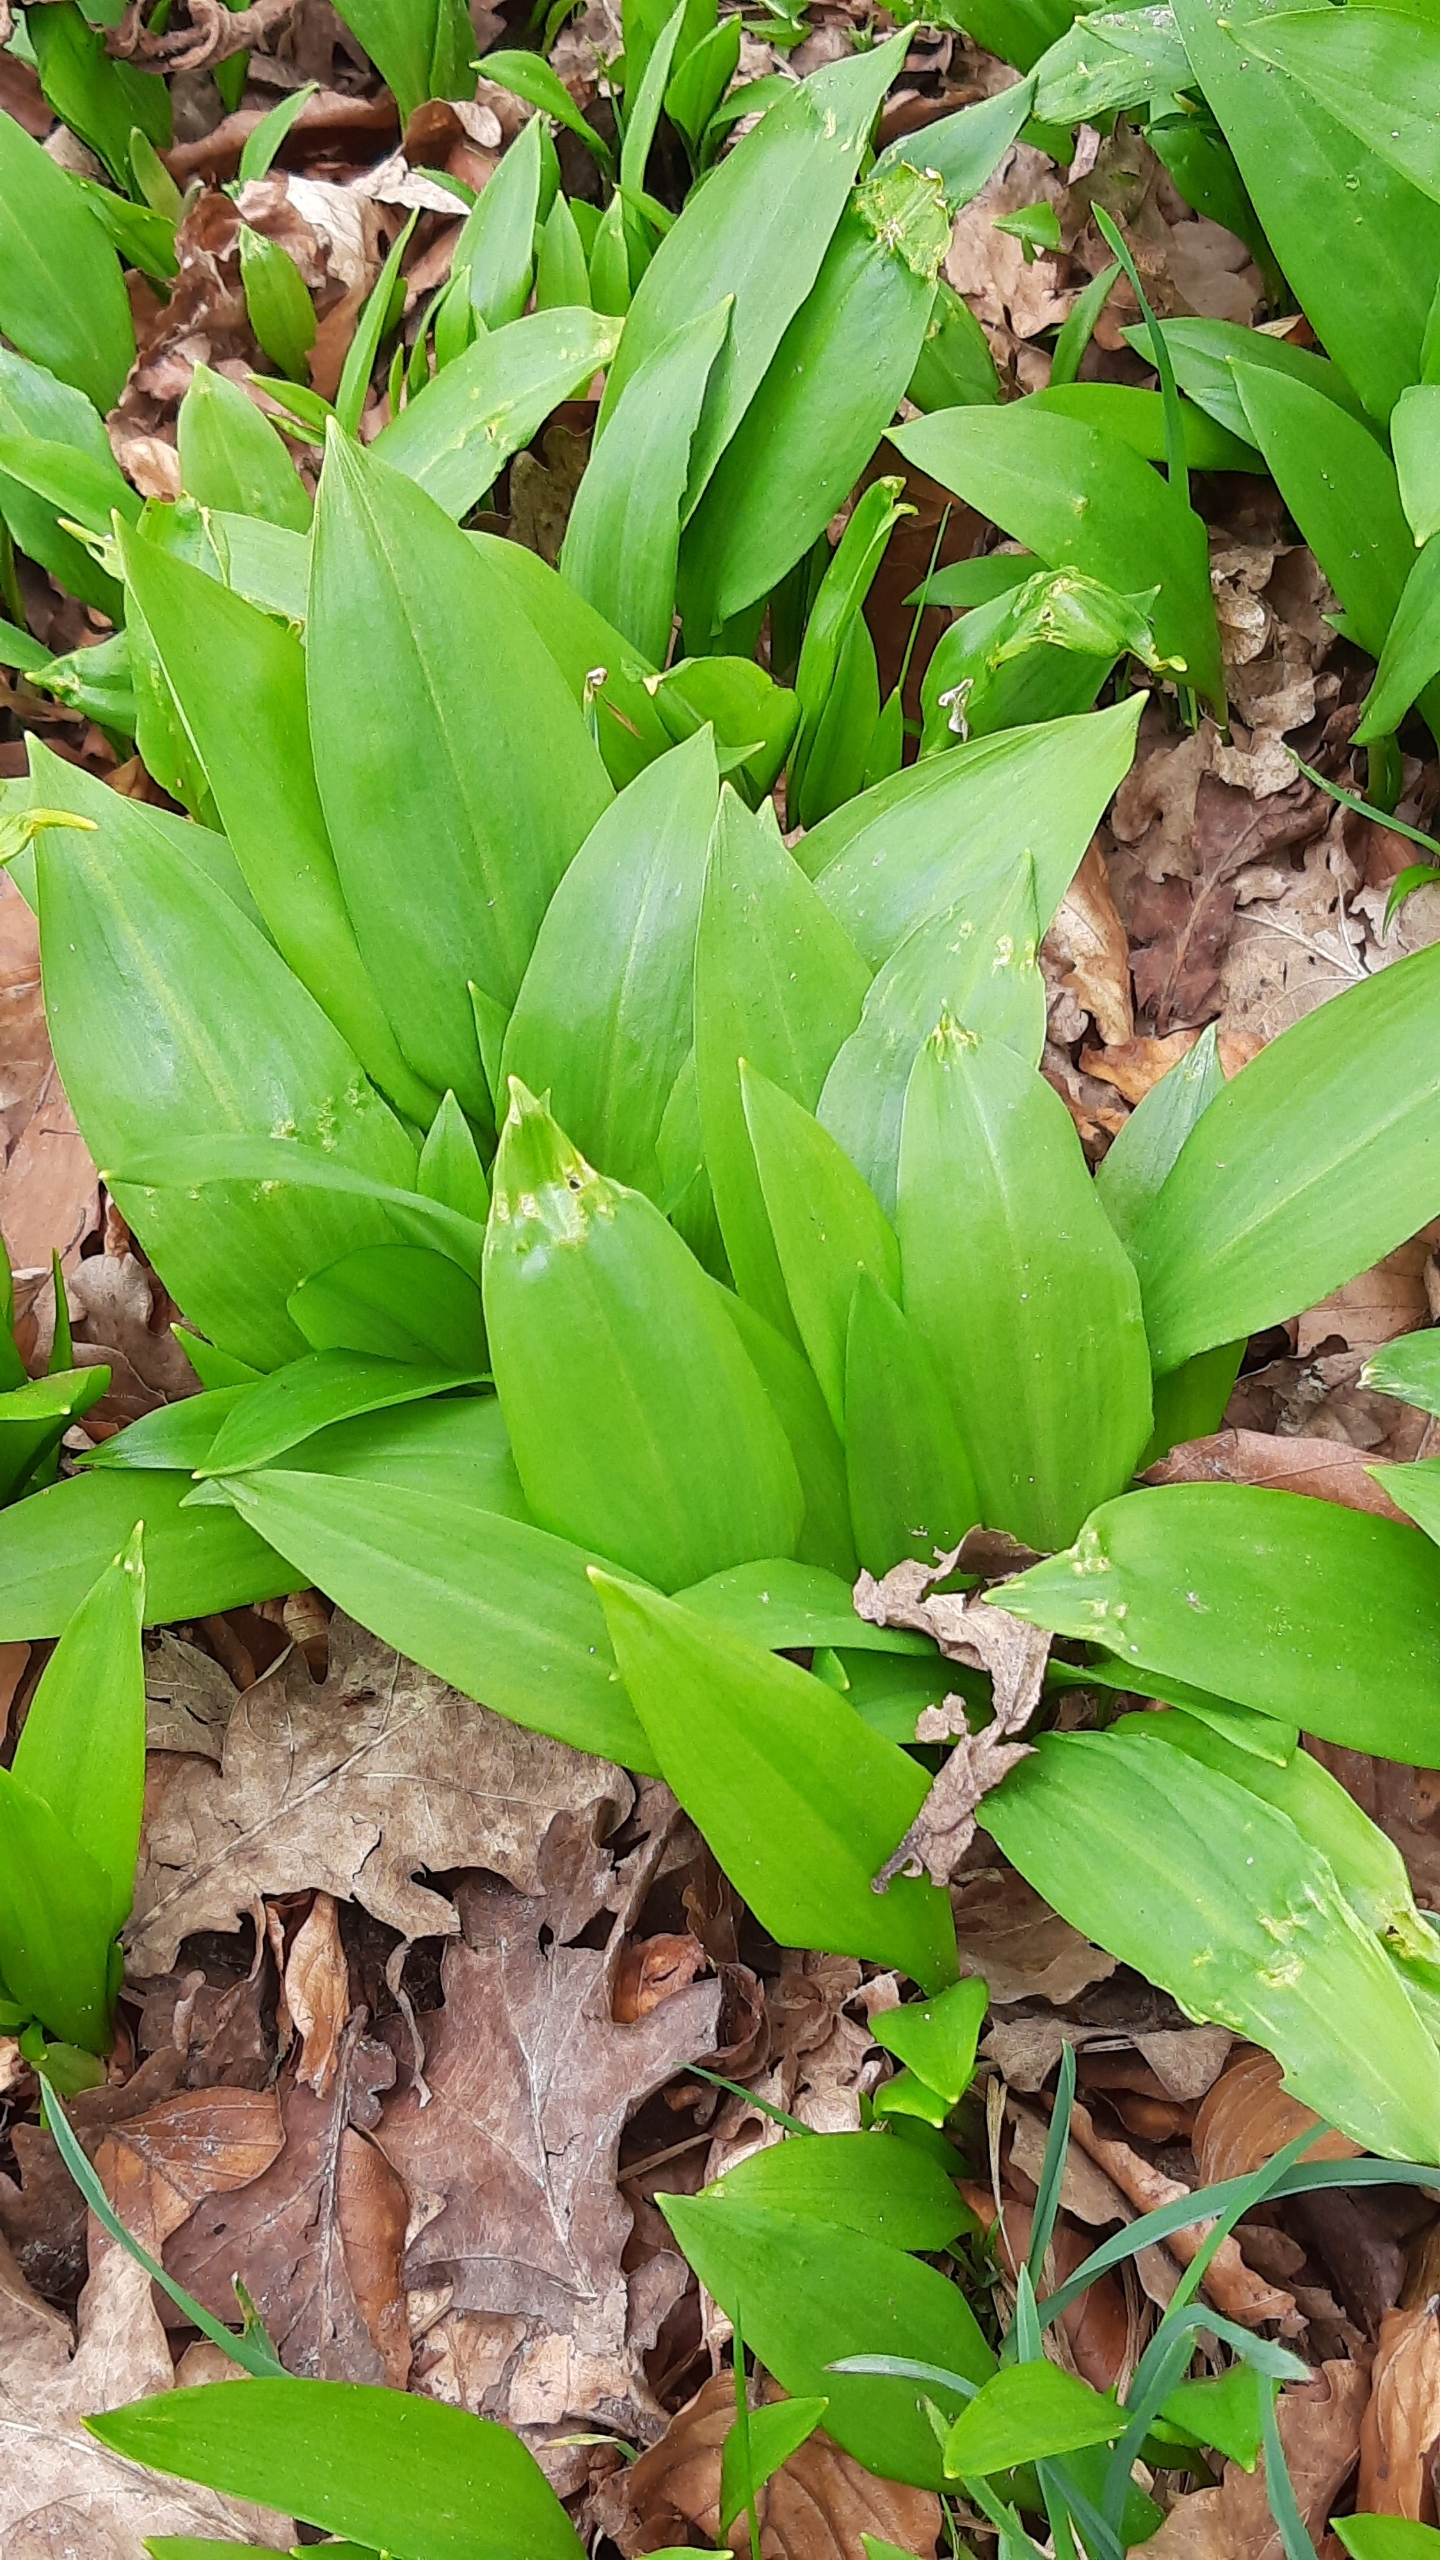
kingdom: Plantae
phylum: Tracheophyta
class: Liliopsida
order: Asparagales
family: Amaryllidaceae
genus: Allium
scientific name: Allium ursinum
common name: Rams-løg
